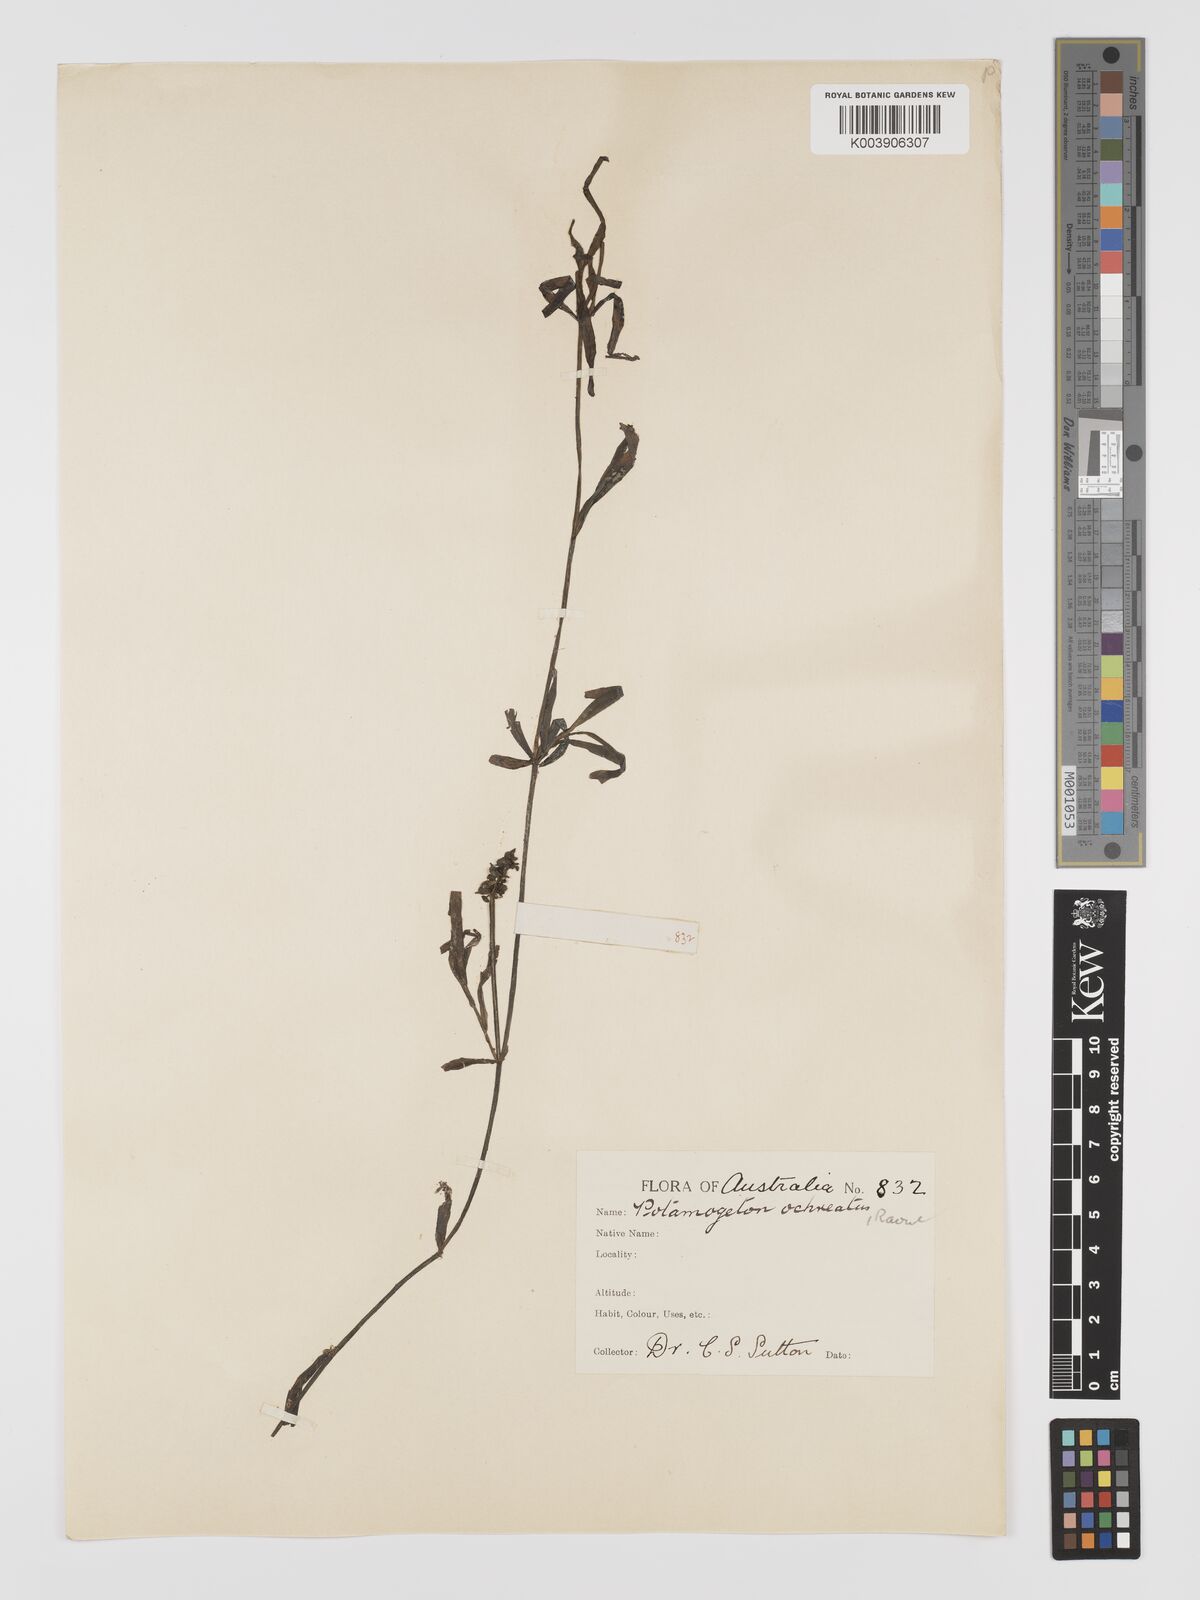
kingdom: Plantae
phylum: Tracheophyta
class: Liliopsida
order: Alismatales
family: Potamogetonaceae
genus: Potamogeton
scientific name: Potamogeton ochreatus
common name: Blunt pondweed
